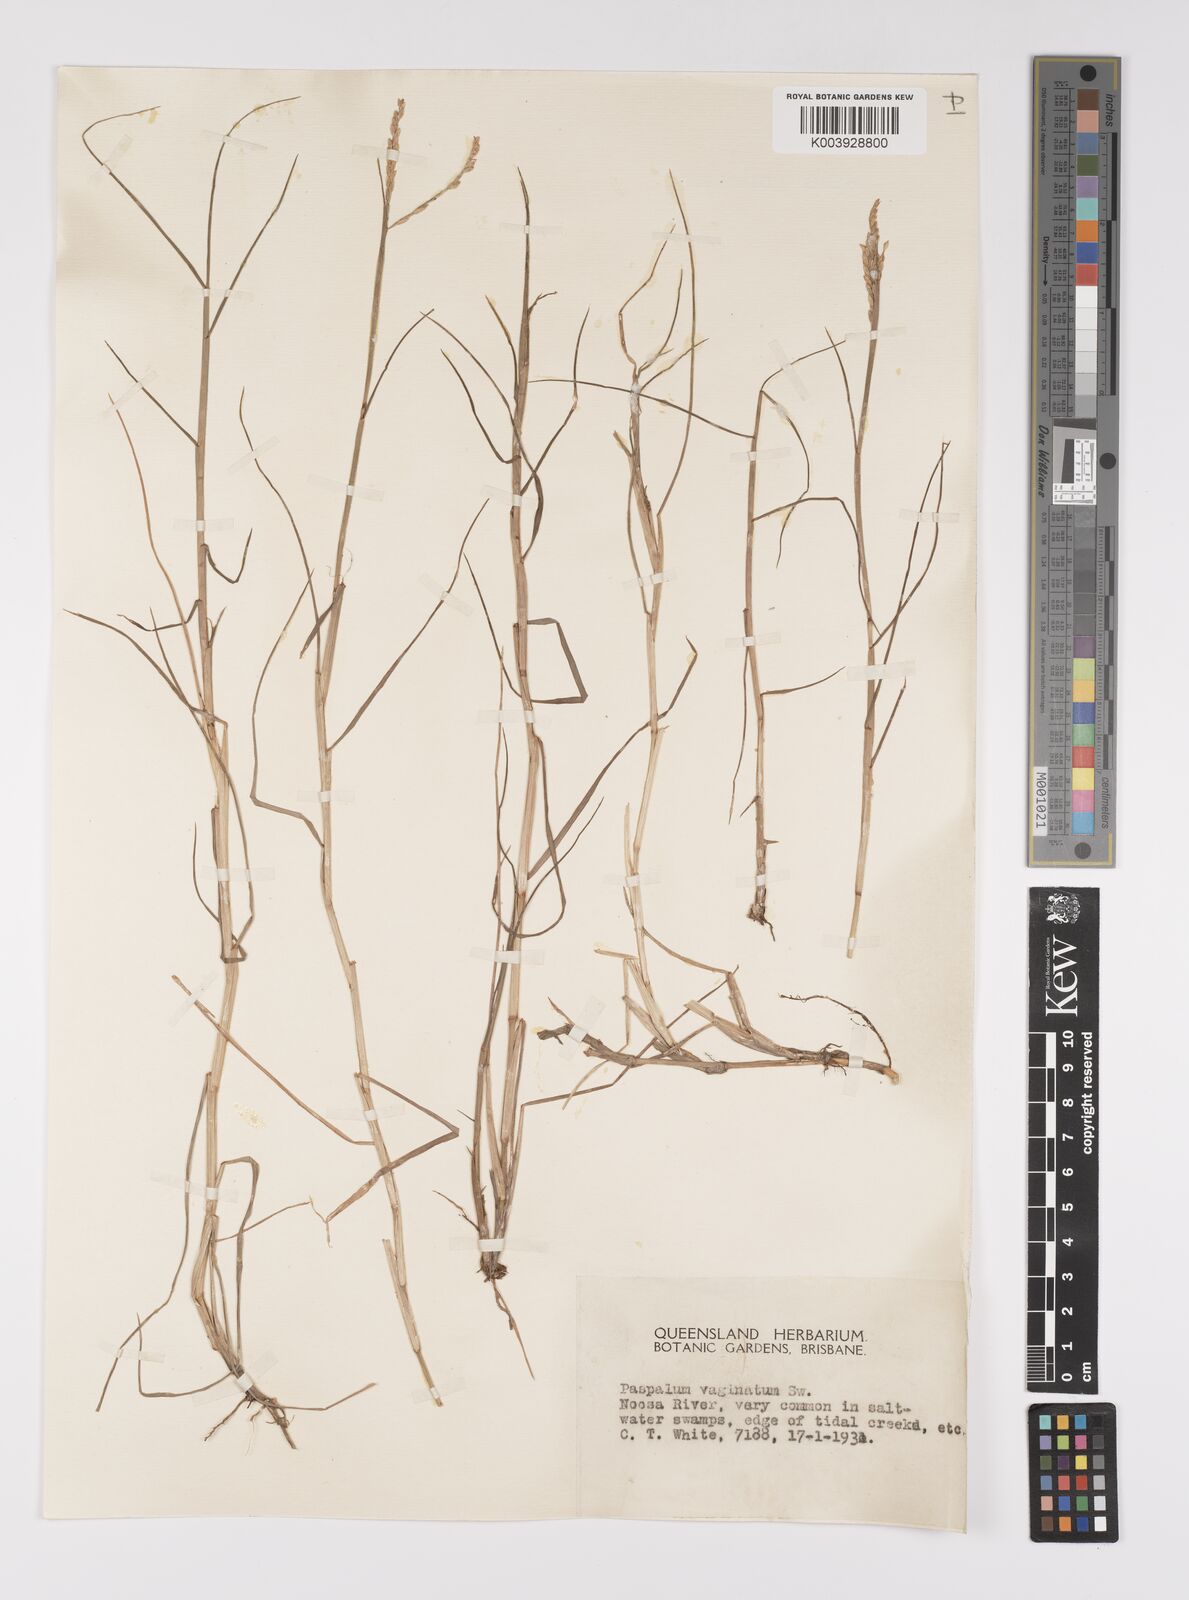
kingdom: Plantae
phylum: Tracheophyta
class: Liliopsida
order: Poales
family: Poaceae
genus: Paspalum
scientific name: Paspalum vaginatum
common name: Seashore paspalum
